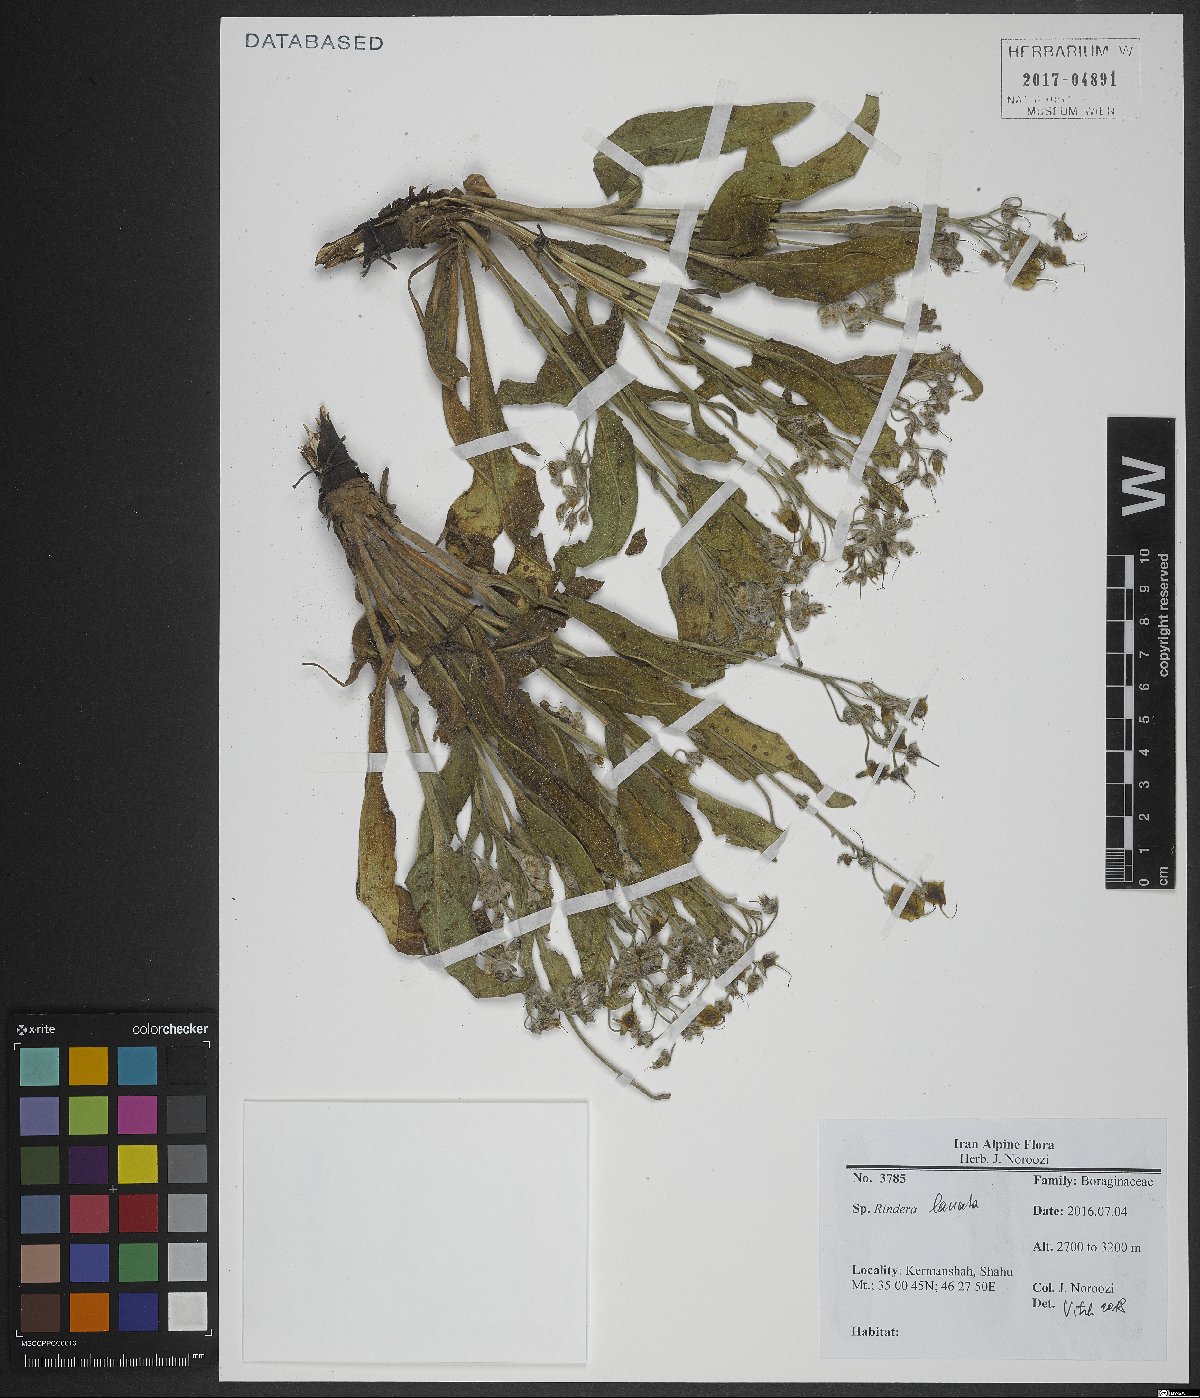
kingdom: Plantae
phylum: Tracheophyta
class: Magnoliopsida
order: Boraginales
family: Boraginaceae
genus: Rindera
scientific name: Rindera lanata
